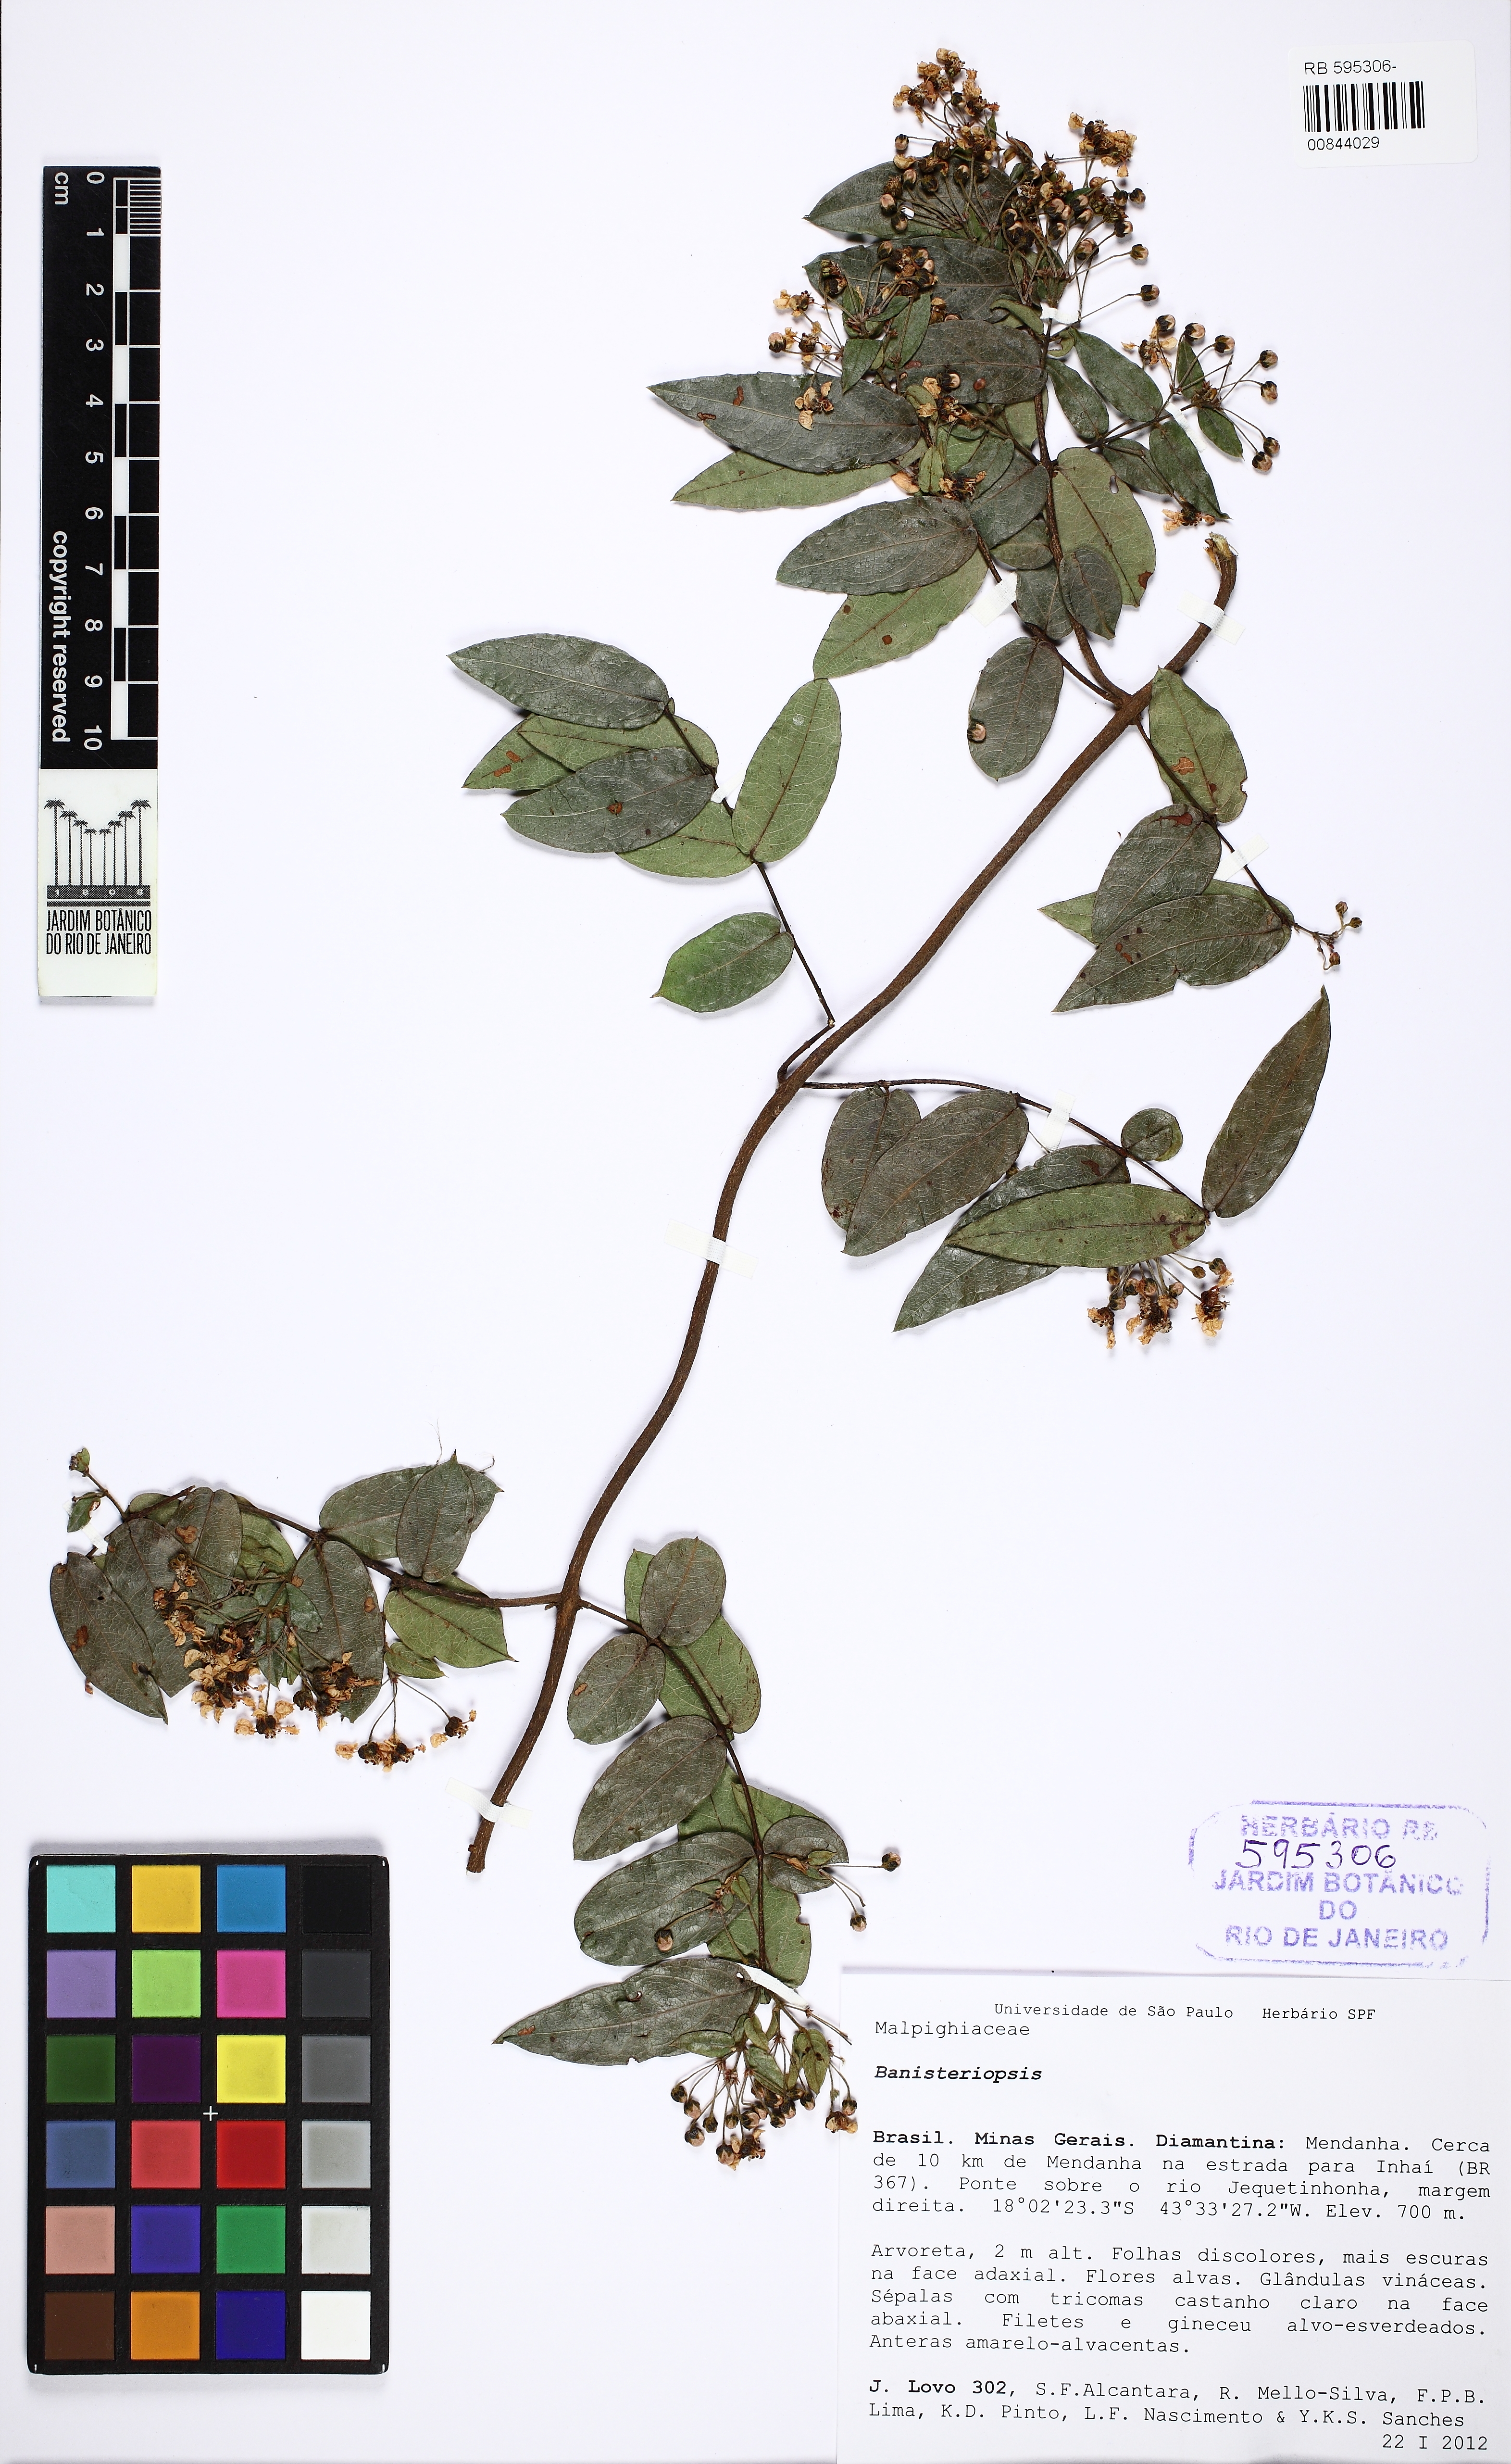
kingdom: Plantae
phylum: Tracheophyta
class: Magnoliopsida
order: Malpighiales
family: Malpighiaceae
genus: Banisteriopsis
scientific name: Banisteriopsis stellaris
